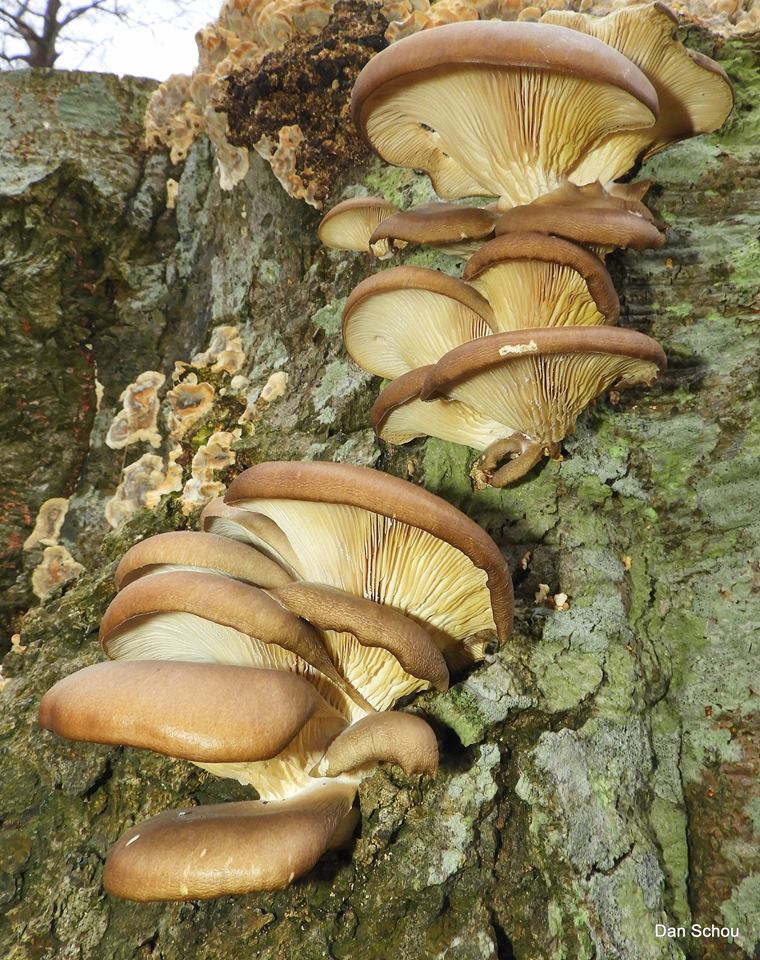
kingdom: Fungi
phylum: Basidiomycota
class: Agaricomycetes
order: Agaricales
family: Pleurotaceae
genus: Pleurotus
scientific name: Pleurotus ostreatus
